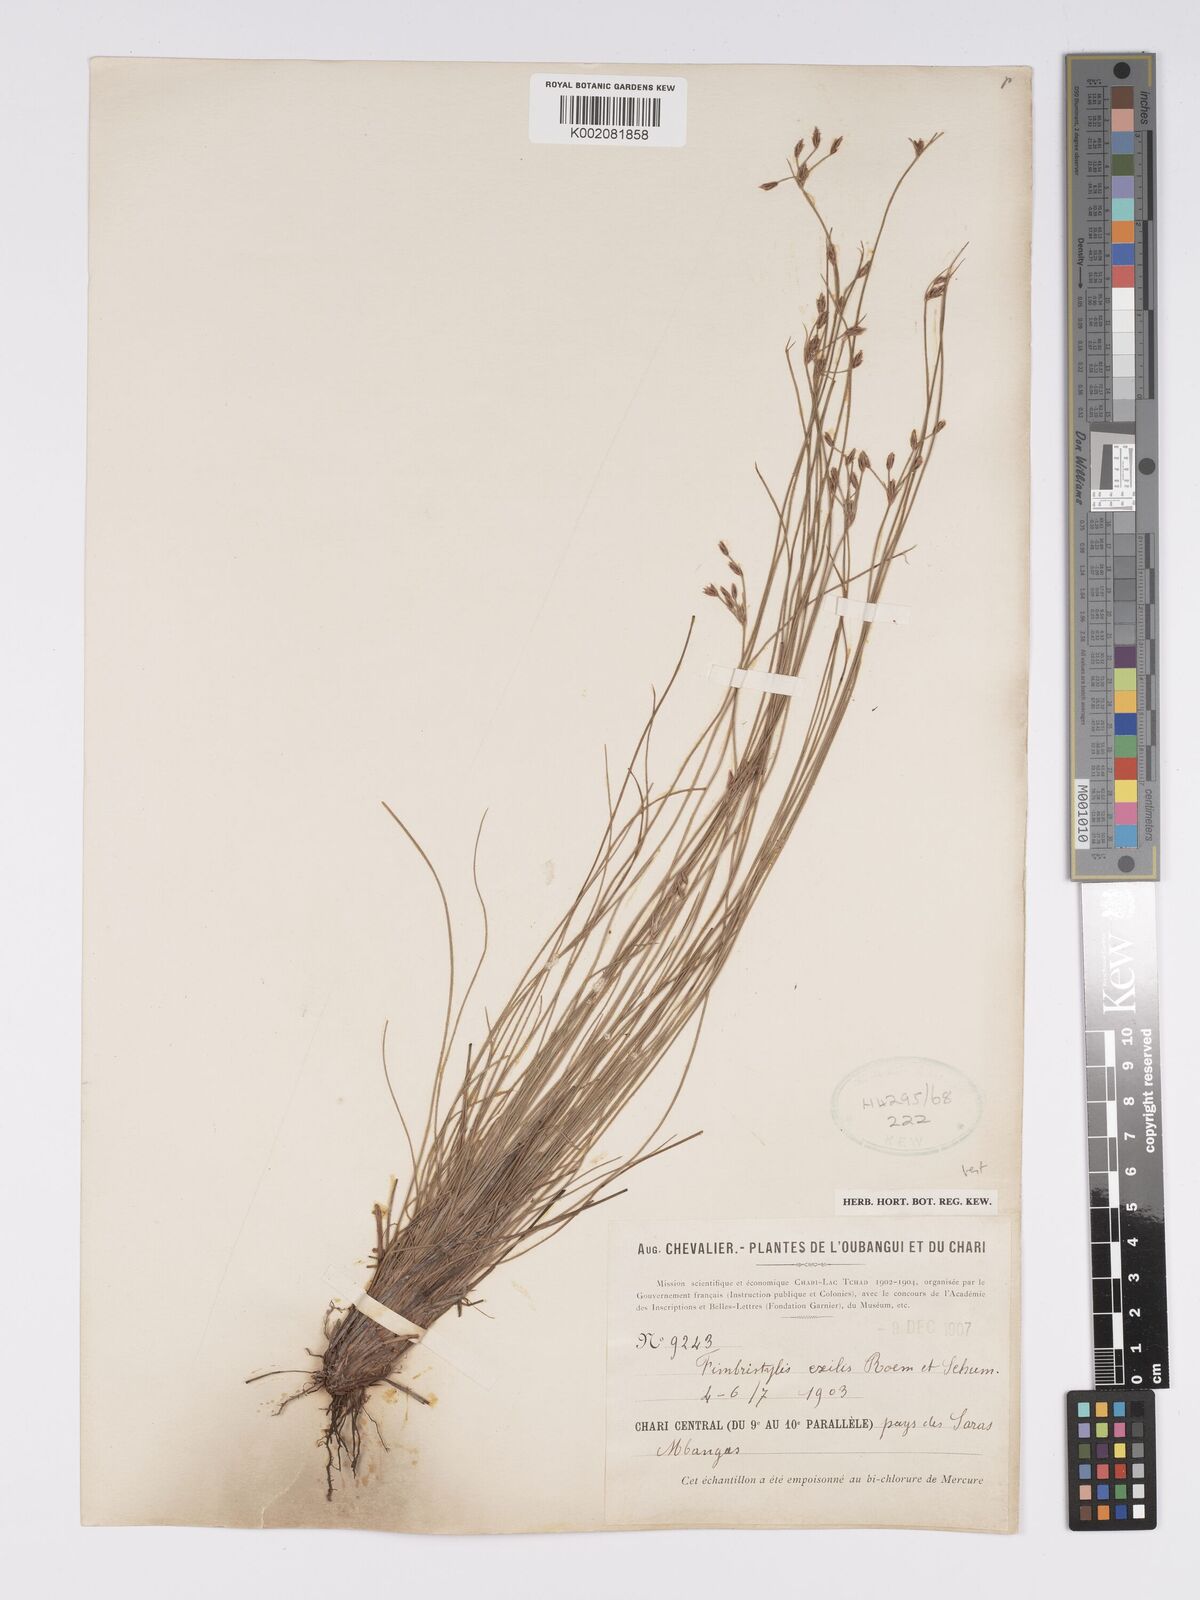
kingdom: Plantae
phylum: Tracheophyta
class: Liliopsida
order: Poales
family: Cyperaceae
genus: Bulbostylis
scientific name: Bulbostylis hispidula
